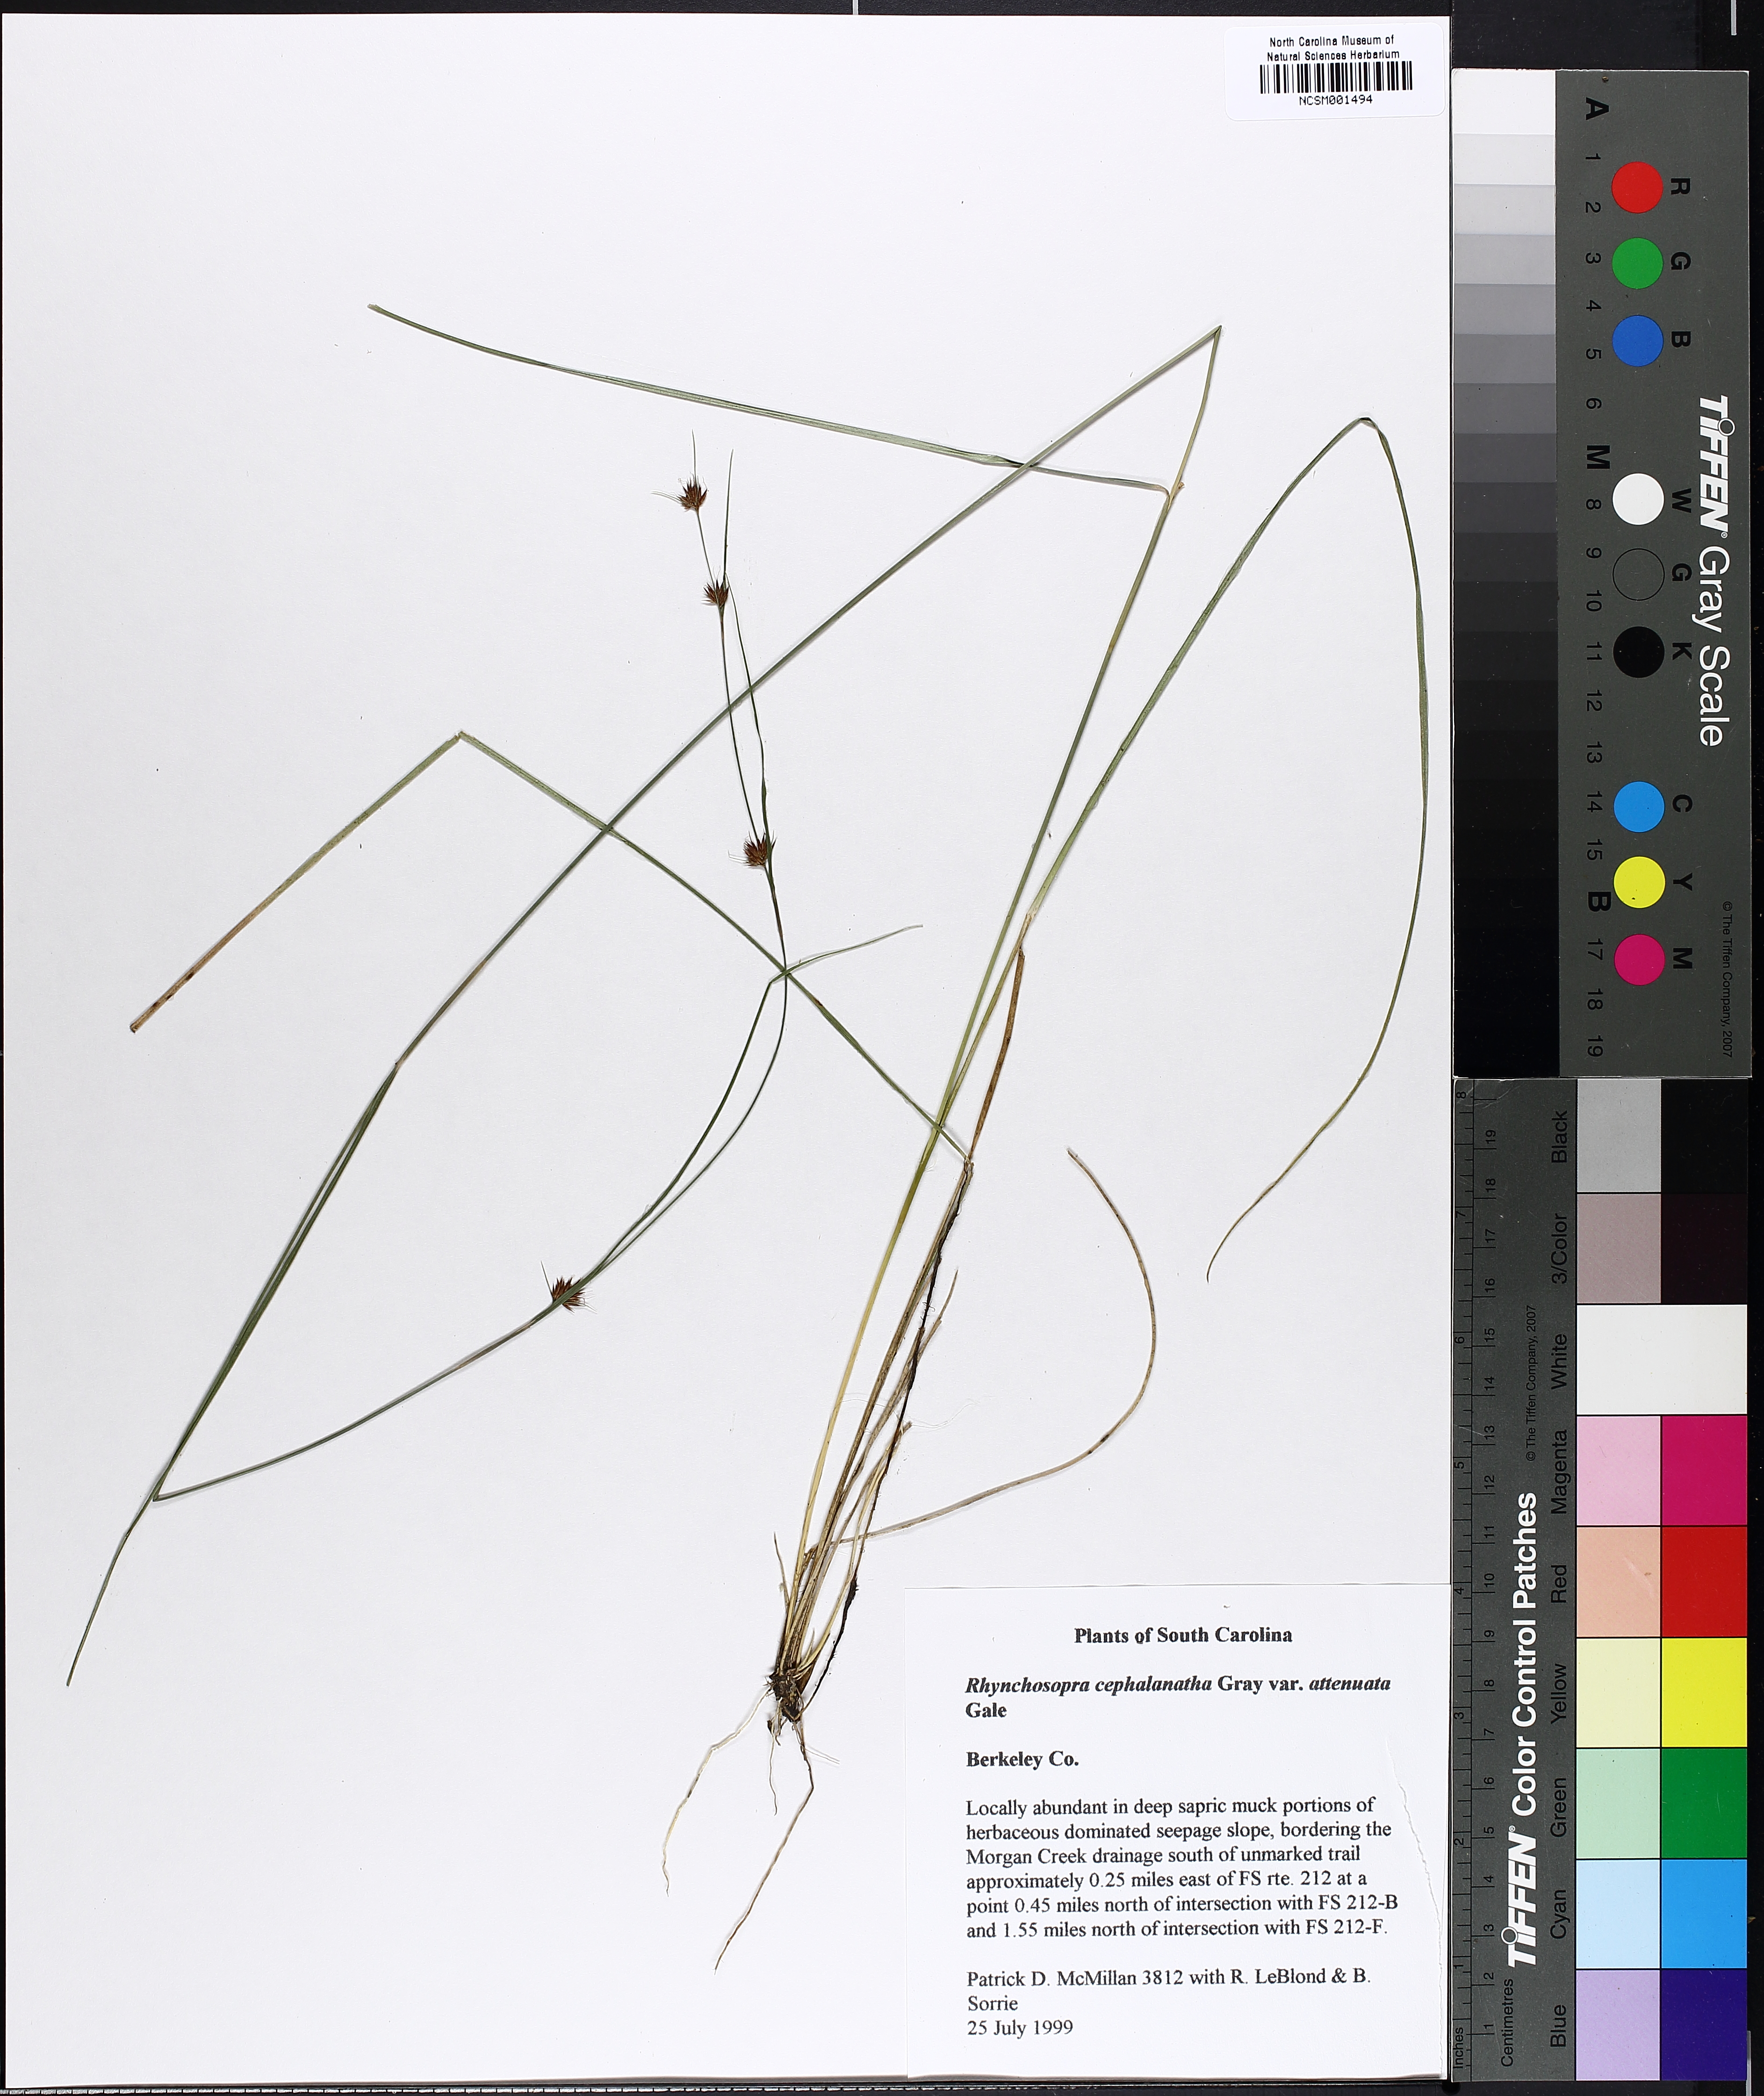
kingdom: Plantae
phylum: Tracheophyta
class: Liliopsida
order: Poales
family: Cyperaceae
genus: Rhynchospora
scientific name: Rhynchospora cephalantha
